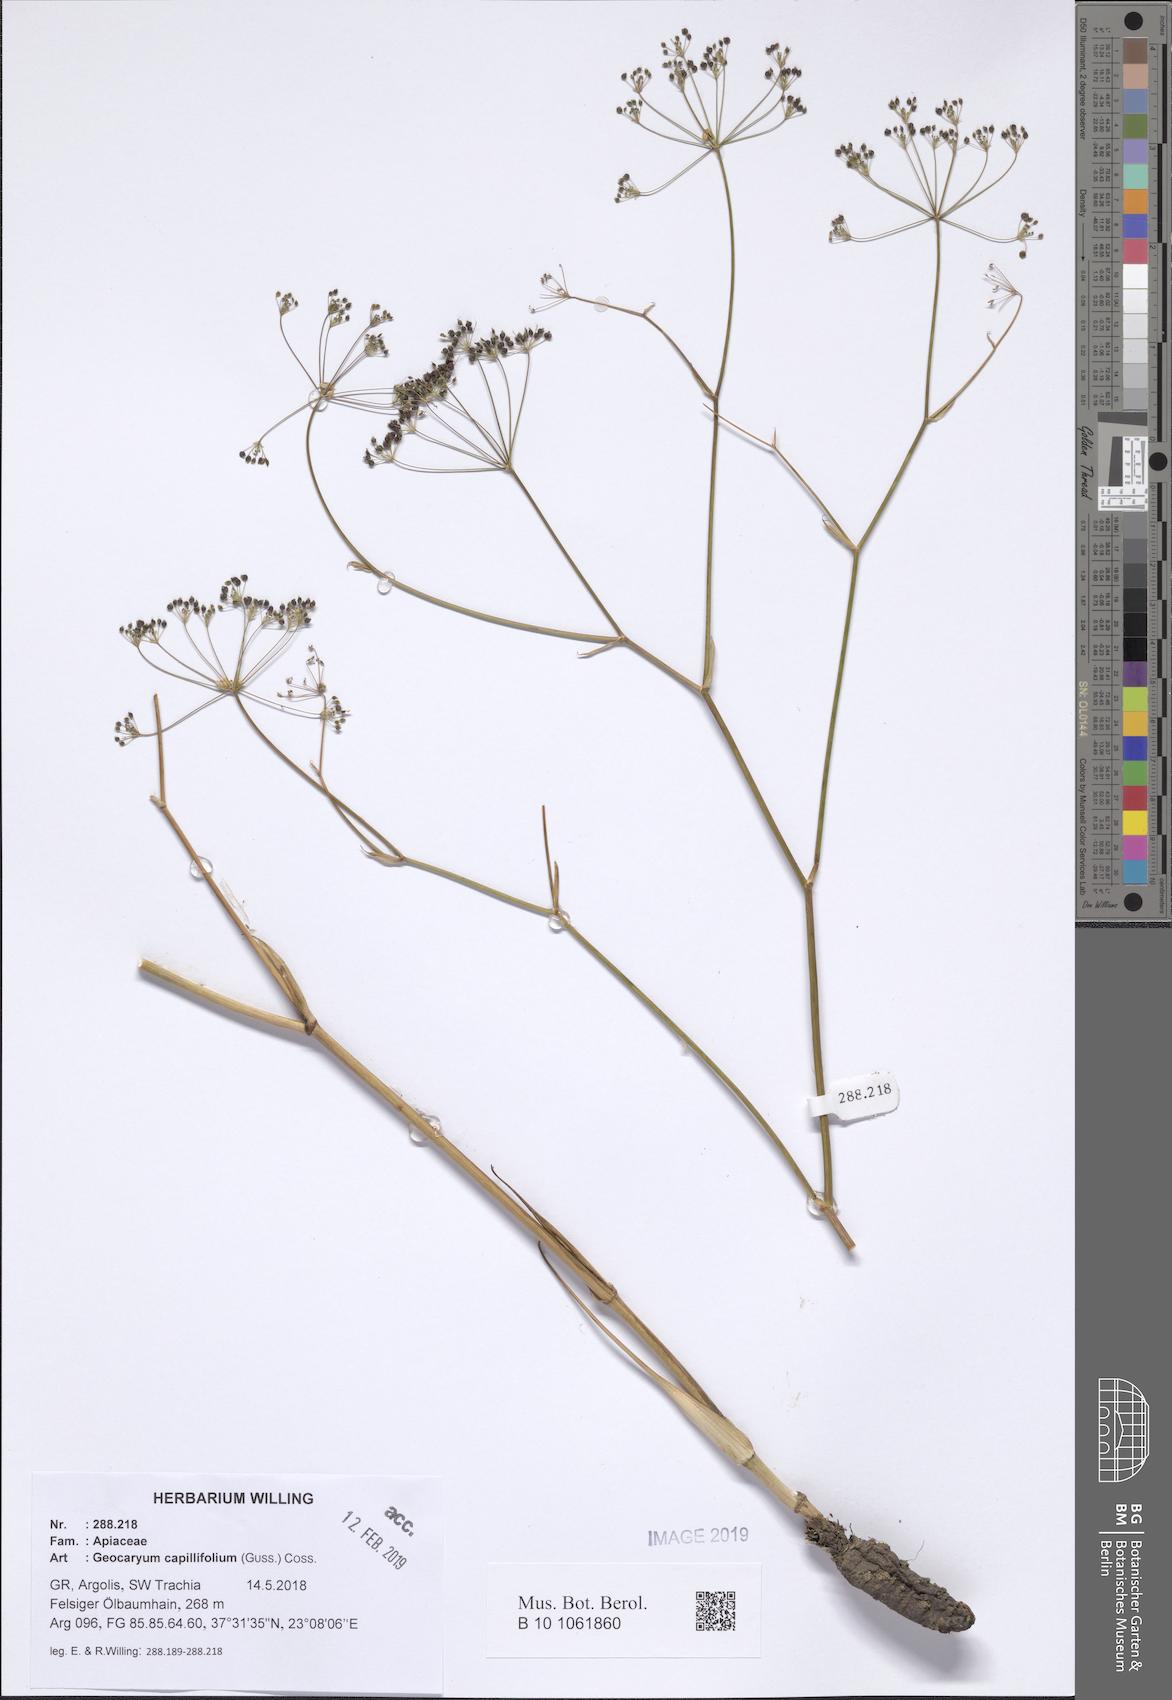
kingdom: Plantae
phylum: Tracheophyta
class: Magnoliopsida
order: Apiales
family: Apiaceae
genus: Geocaryum
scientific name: Geocaryum capillifolium
